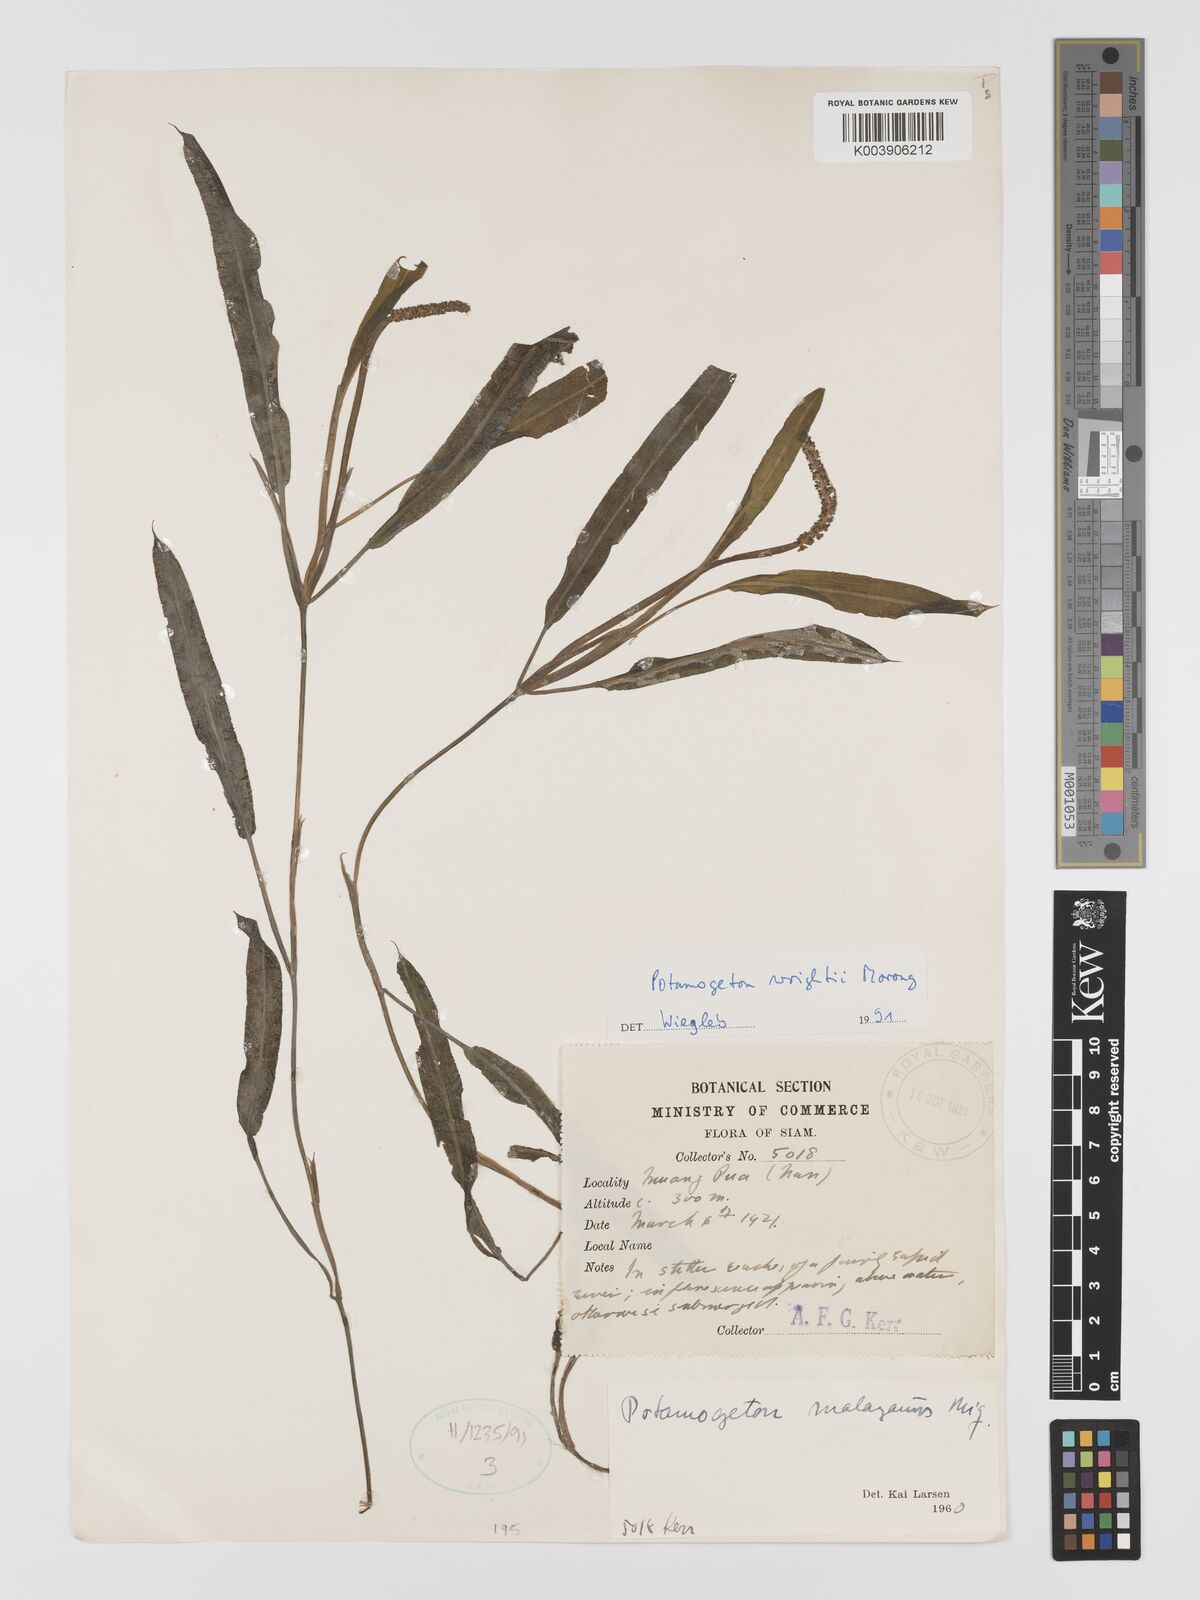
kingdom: Plantae
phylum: Tracheophyta
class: Liliopsida
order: Alismatales
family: Potamogetonaceae
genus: Potamogeton
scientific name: Potamogeton distinctus
